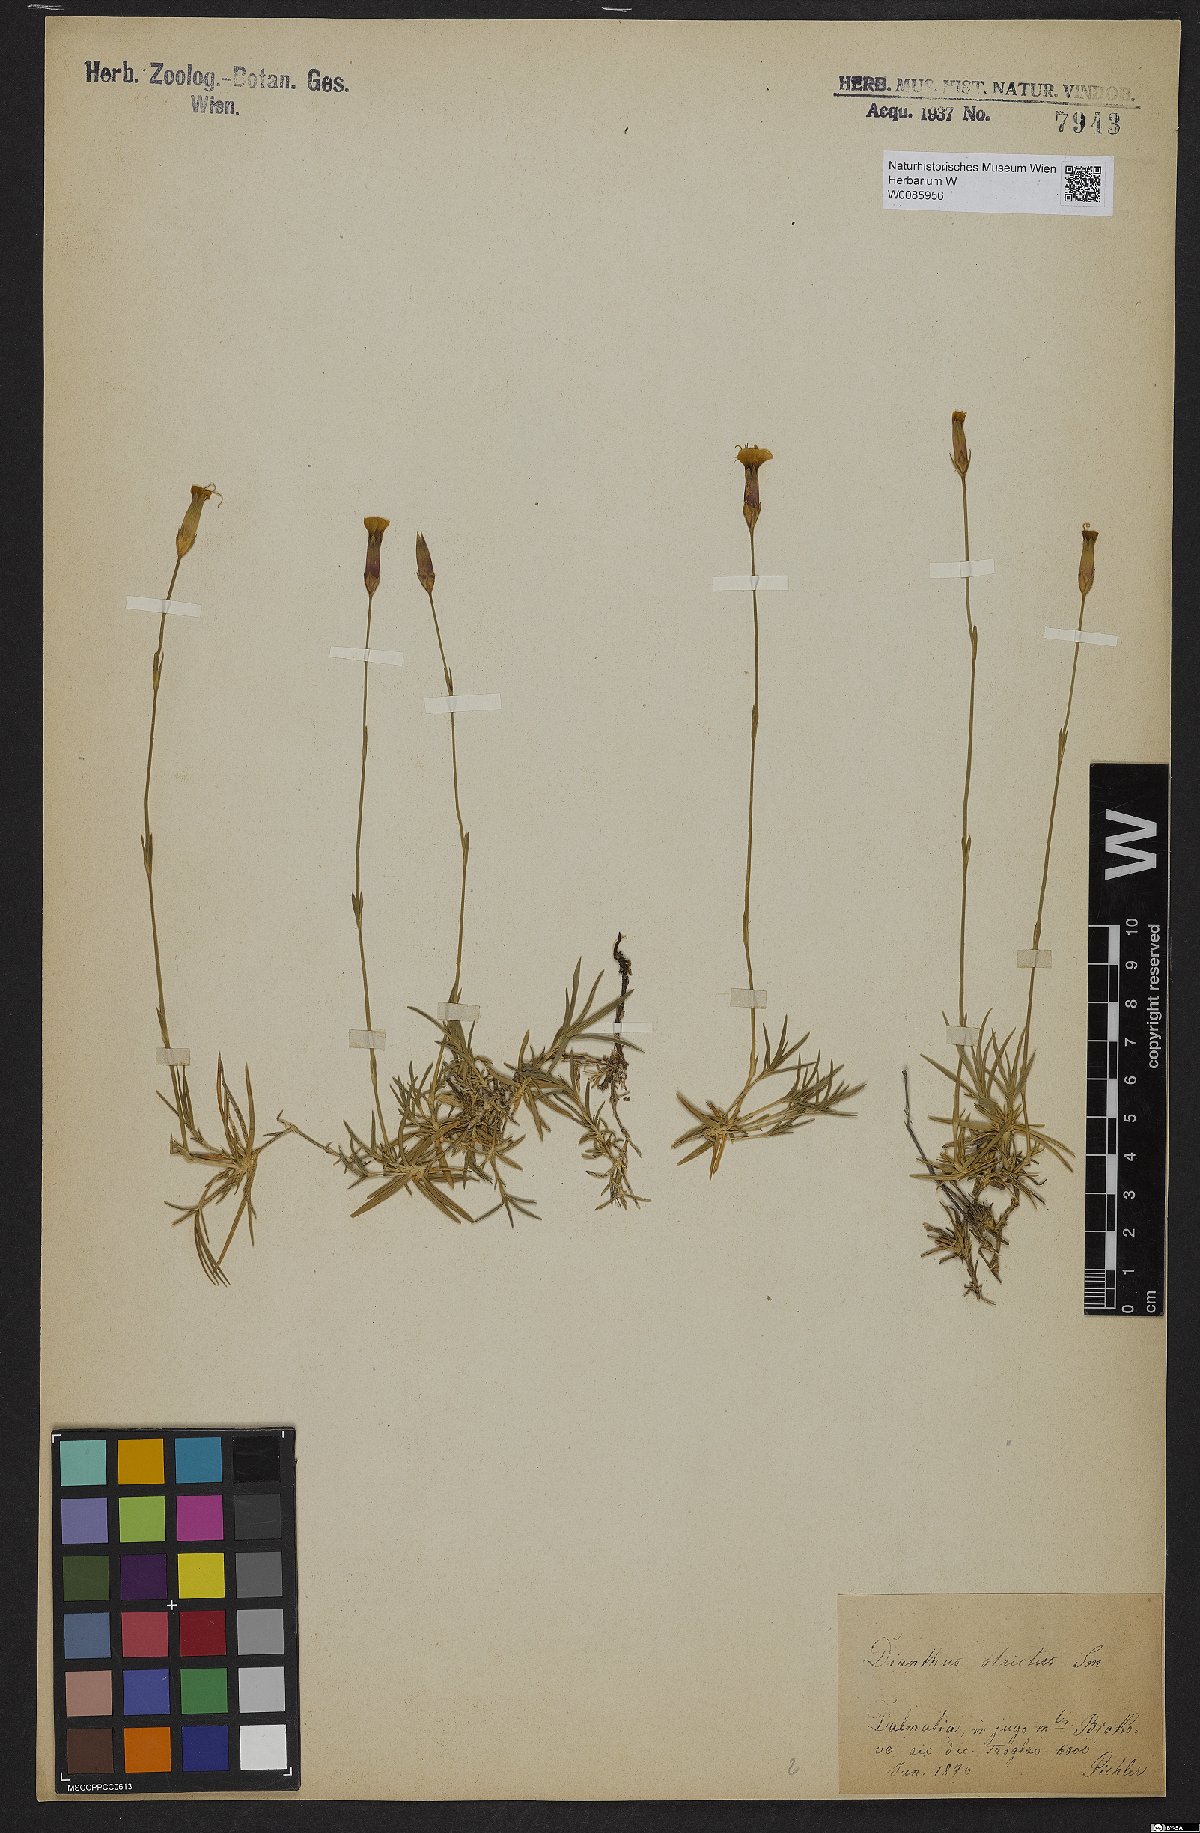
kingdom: Plantae
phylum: Tracheophyta
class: Magnoliopsida
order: Caryophyllales
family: Caryophyllaceae
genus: Dianthus
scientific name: Dianthus petraeus
